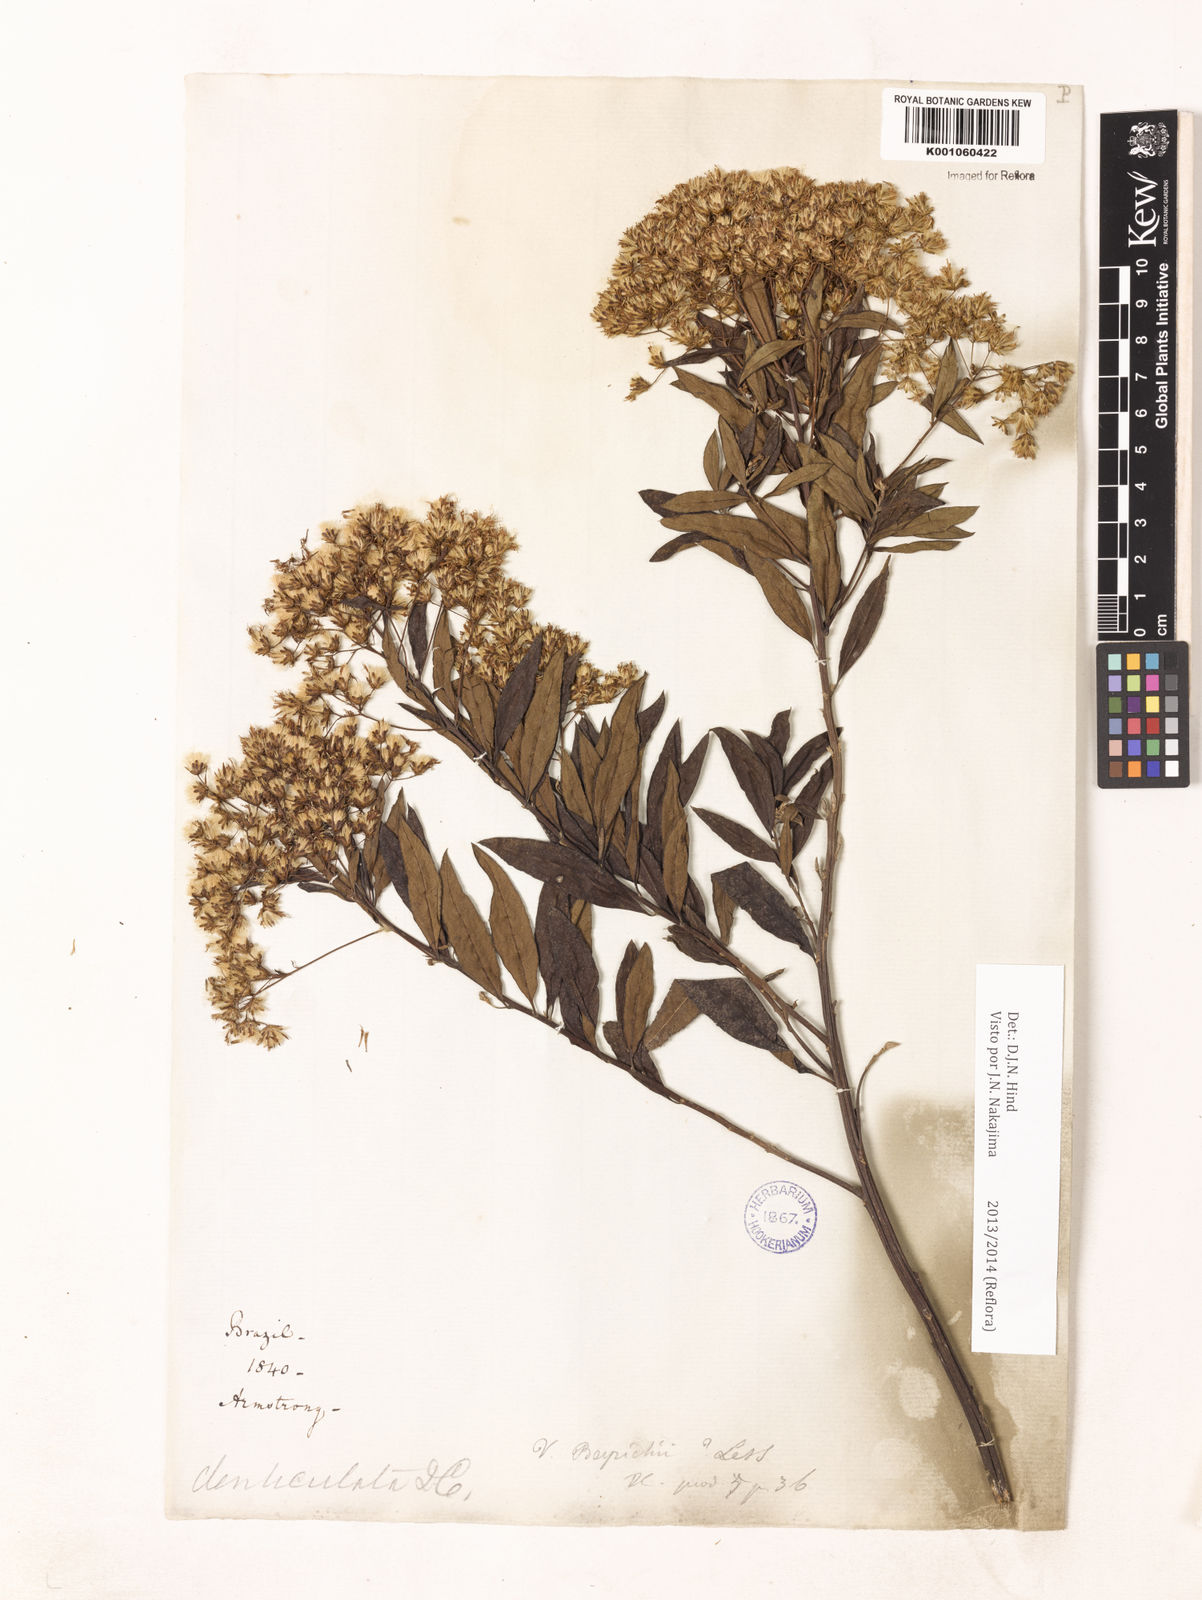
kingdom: Plantae
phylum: Tracheophyta
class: Magnoliopsida
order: Asterales
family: Asteraceae
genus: Vernonanthura
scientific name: Vernonanthura beyrichii
